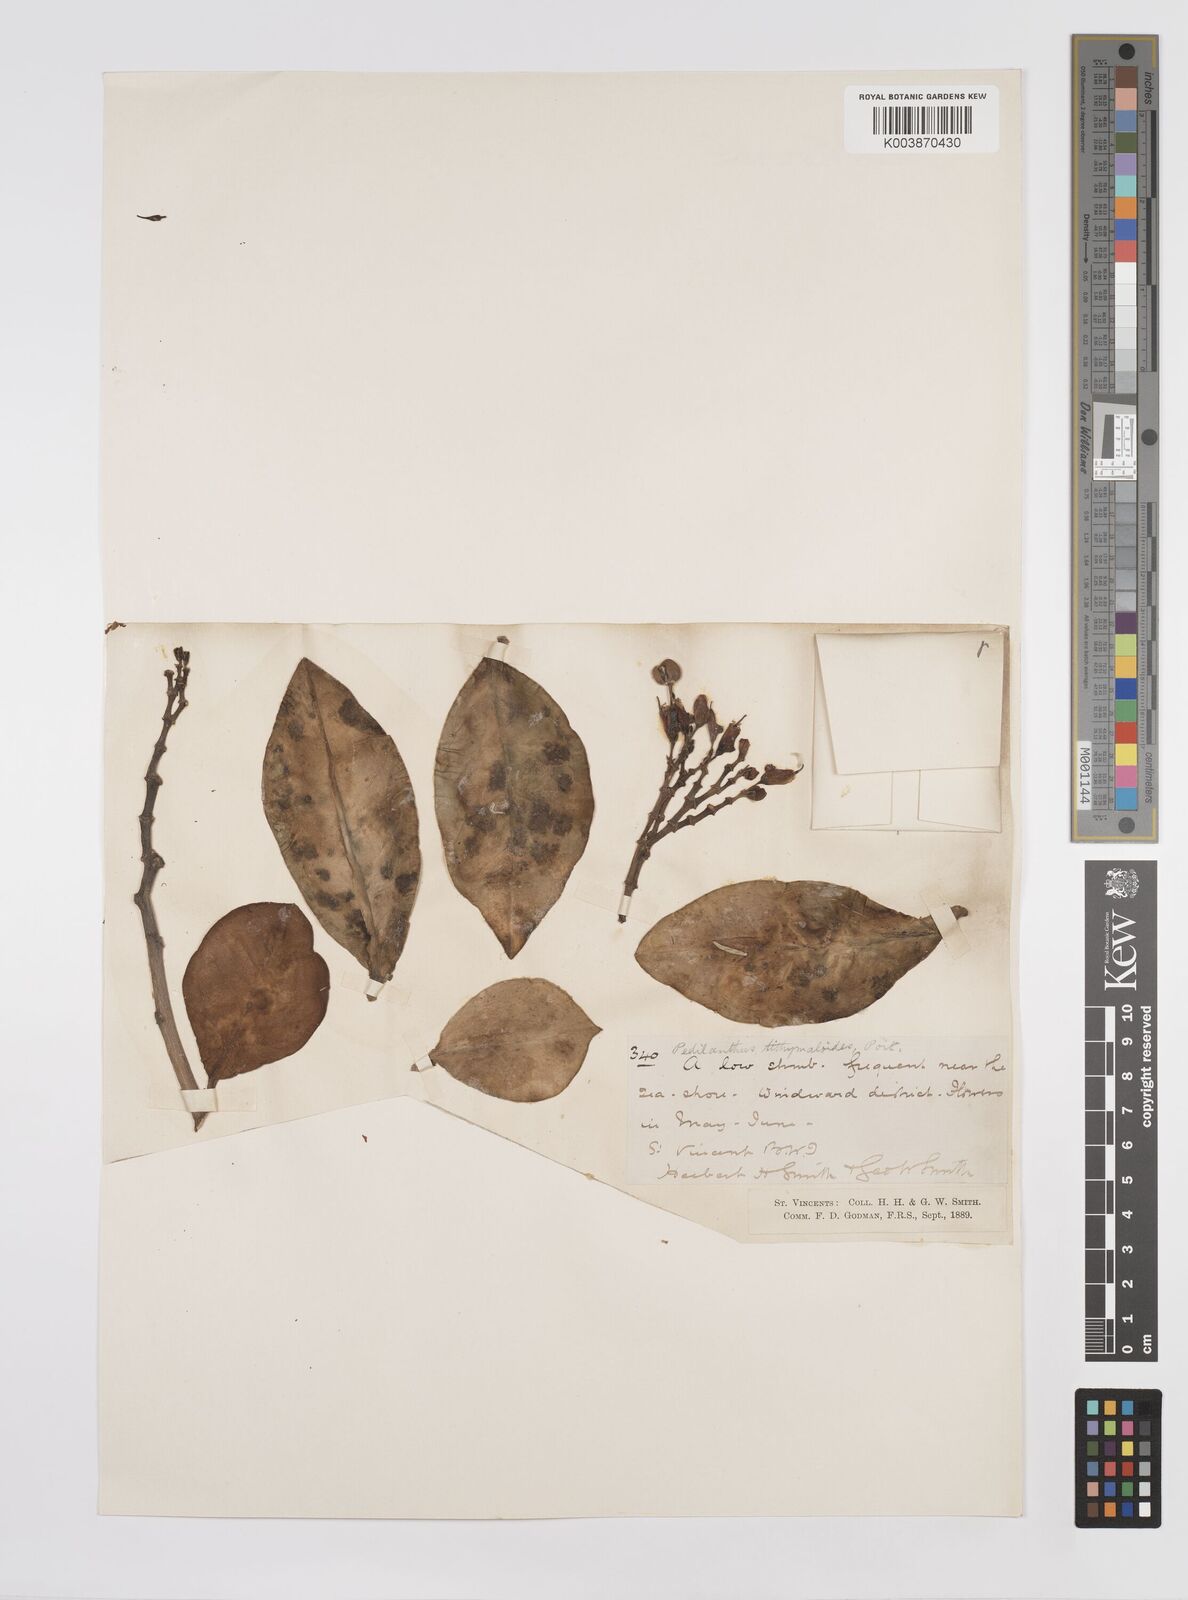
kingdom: Plantae
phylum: Tracheophyta
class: Magnoliopsida
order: Malpighiales
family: Euphorbiaceae
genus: Euphorbia
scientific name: Euphorbia tithymaloides
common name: Slipperplant
